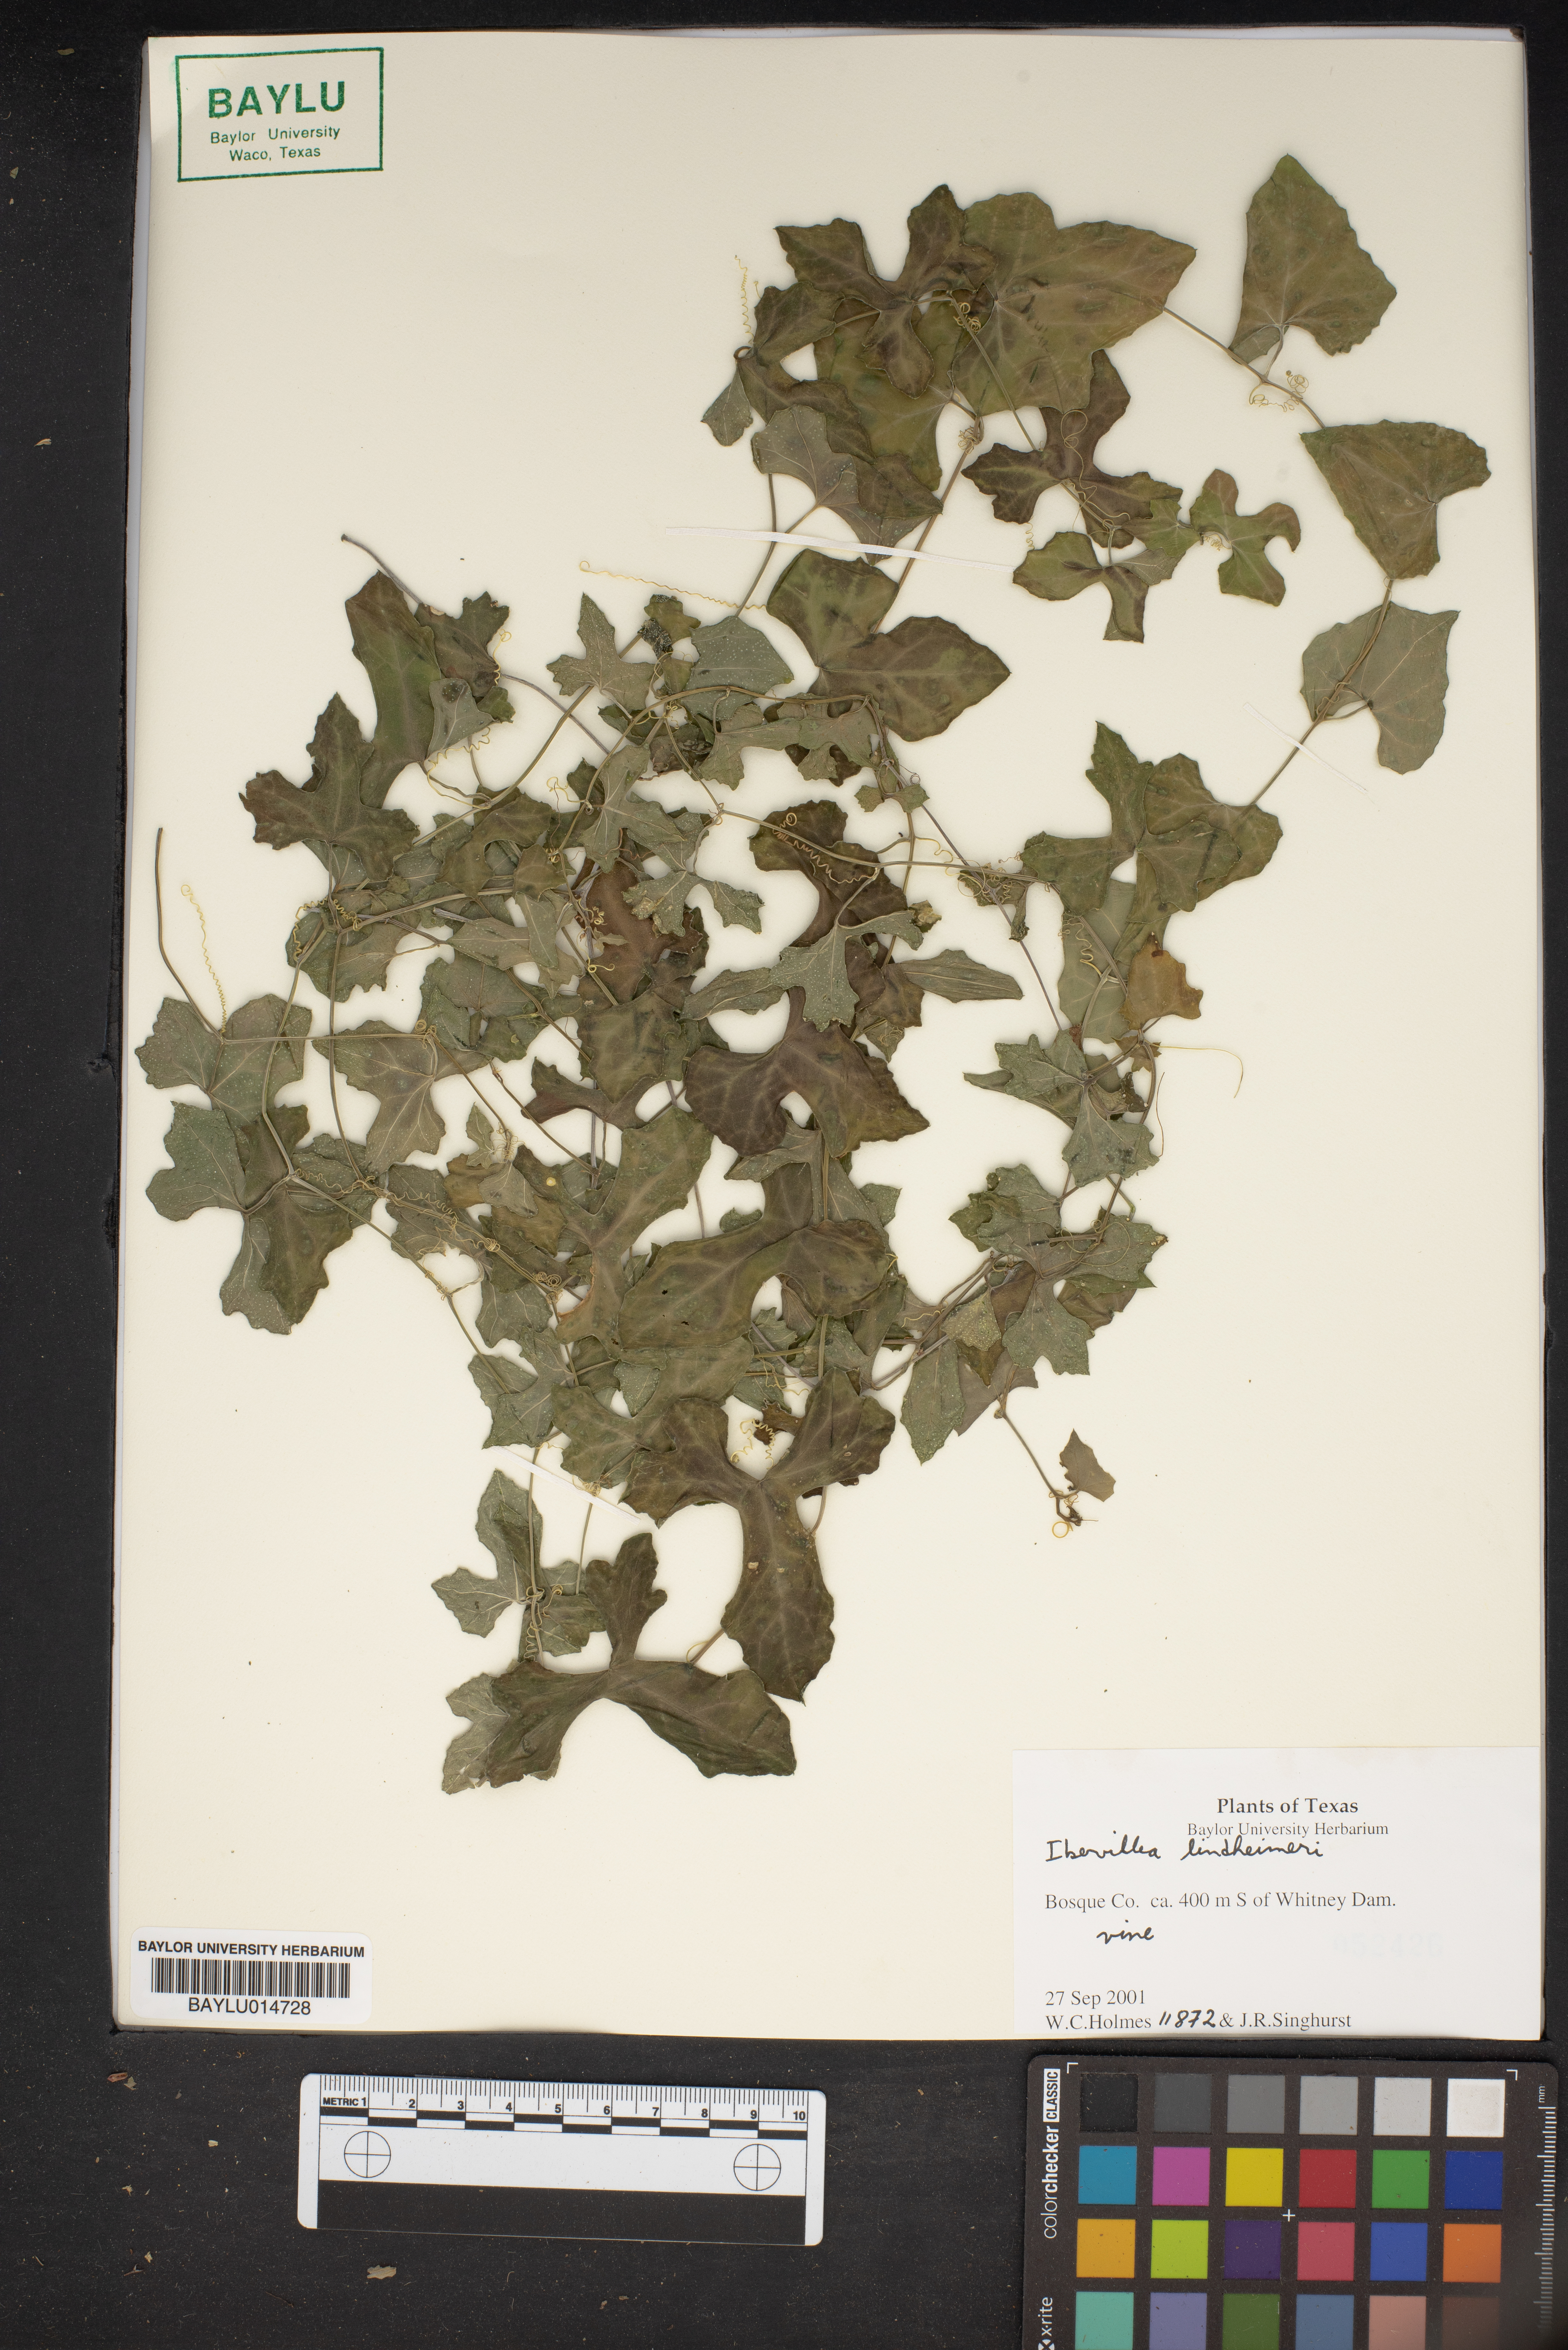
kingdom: Plantae
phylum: Tracheophyta
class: Magnoliopsida
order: Cucurbitales
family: Cucurbitaceae
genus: Ibervillea
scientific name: Ibervillea lindheimeri
